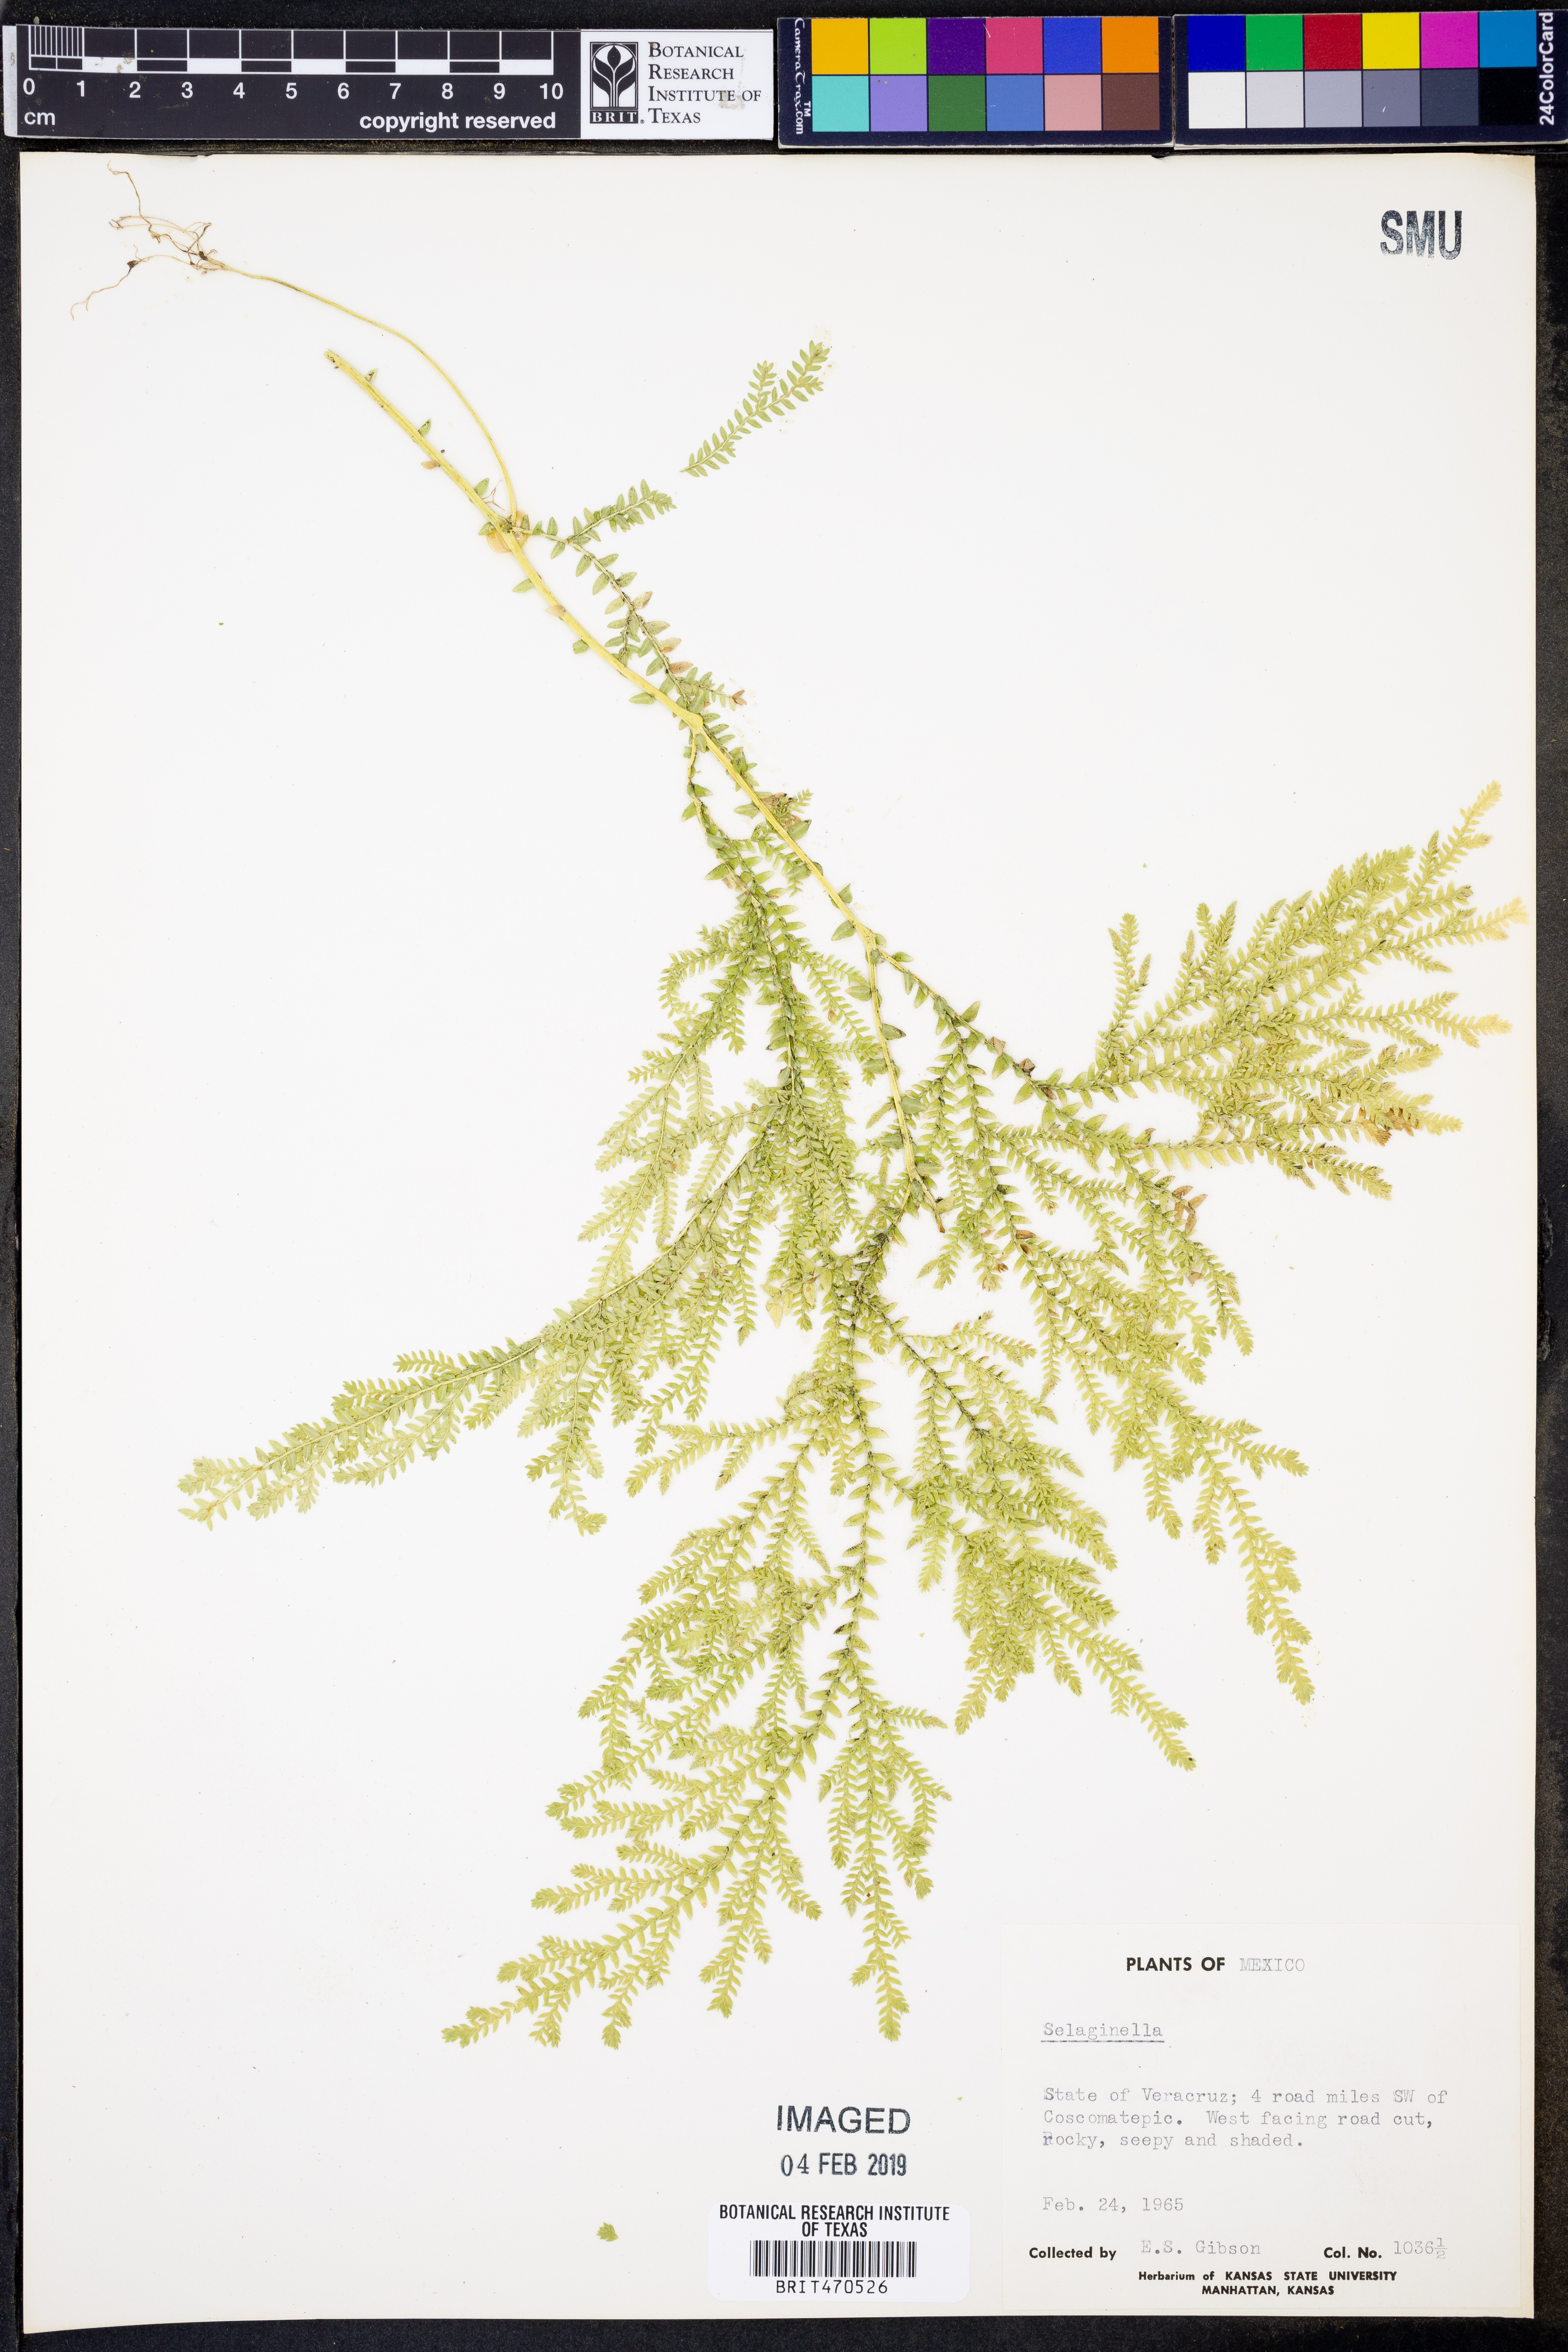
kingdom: Plantae
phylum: Tracheophyta
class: Lycopodiopsida
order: Selaginellales
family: Selaginellaceae
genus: Selaginella
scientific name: Selaginella
